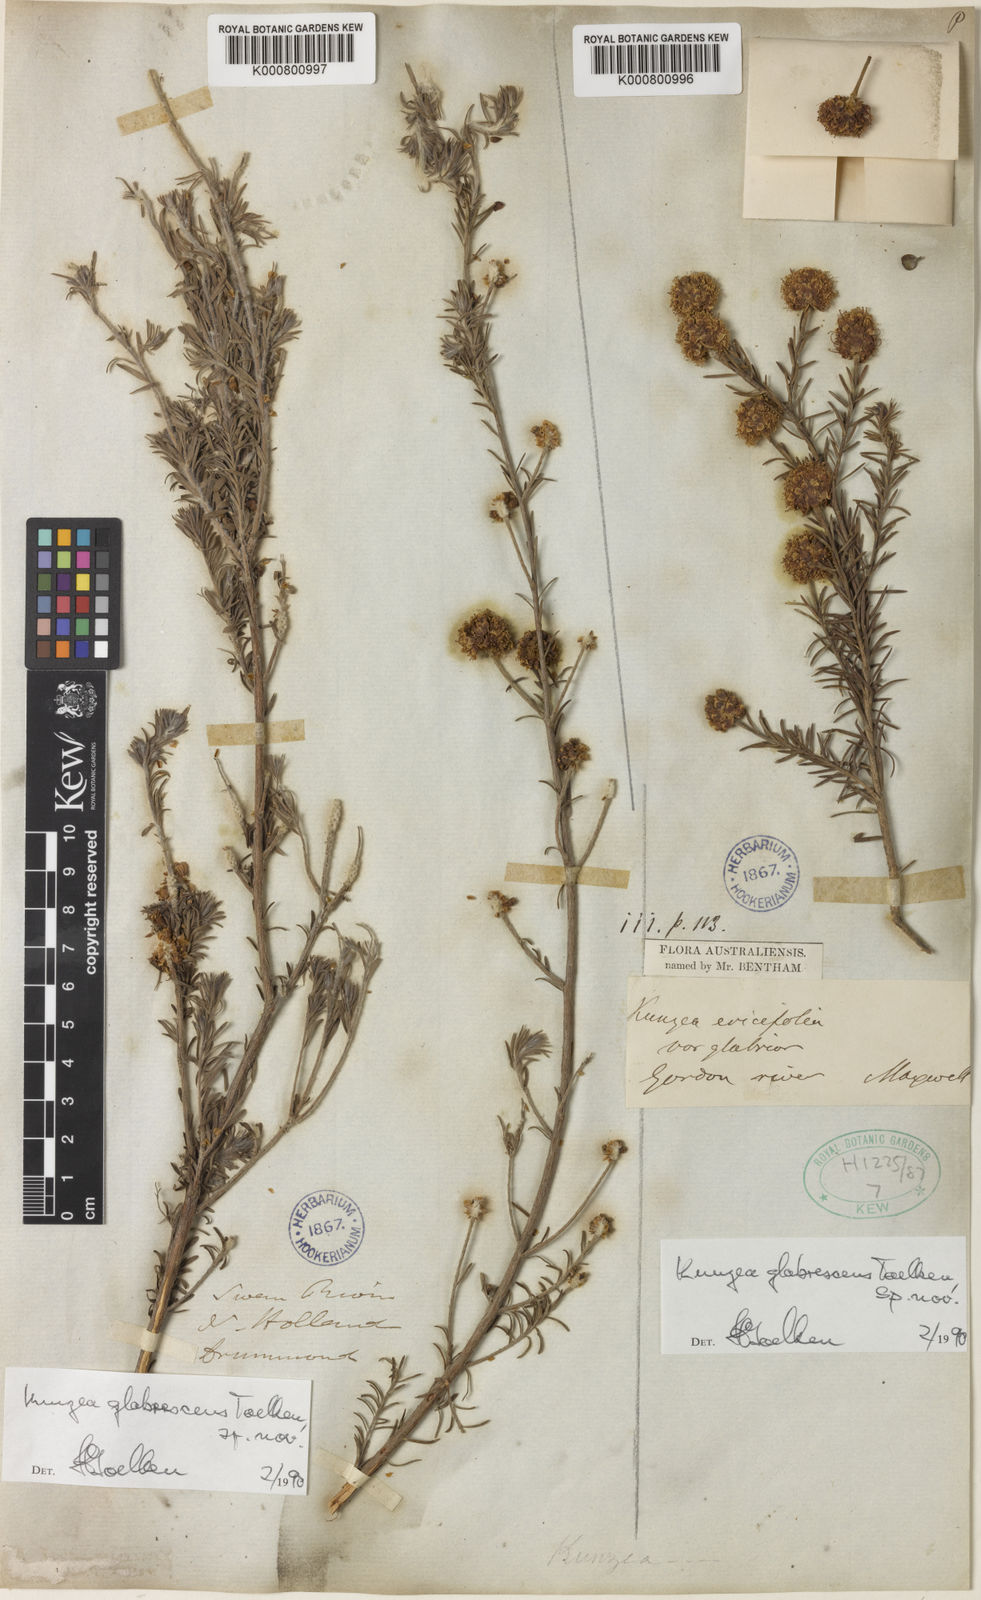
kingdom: Plantae
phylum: Tracheophyta
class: Magnoliopsida
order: Myrtales
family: Myrtaceae
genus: Kunzea
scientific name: Kunzea glabrescens
